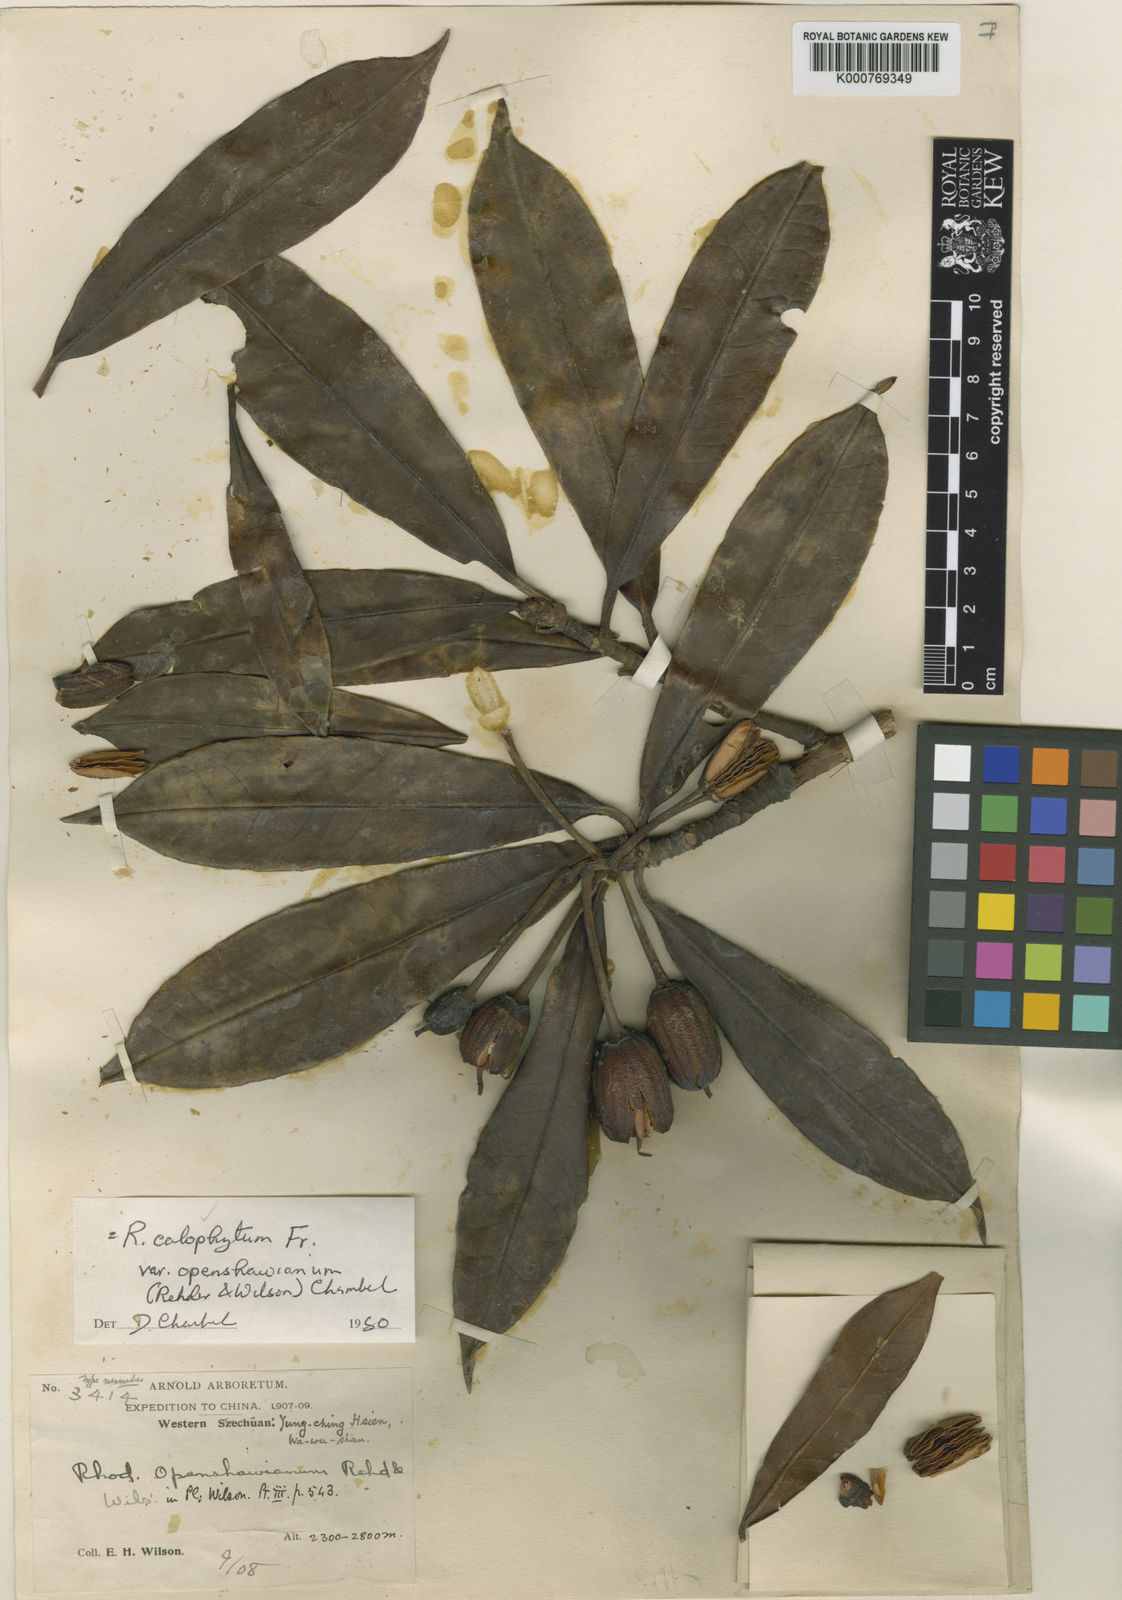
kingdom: Plantae
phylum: Tracheophyta
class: Magnoliopsida
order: Ericales
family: Ericaceae
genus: Rhododendron
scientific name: Rhododendron calophytum
